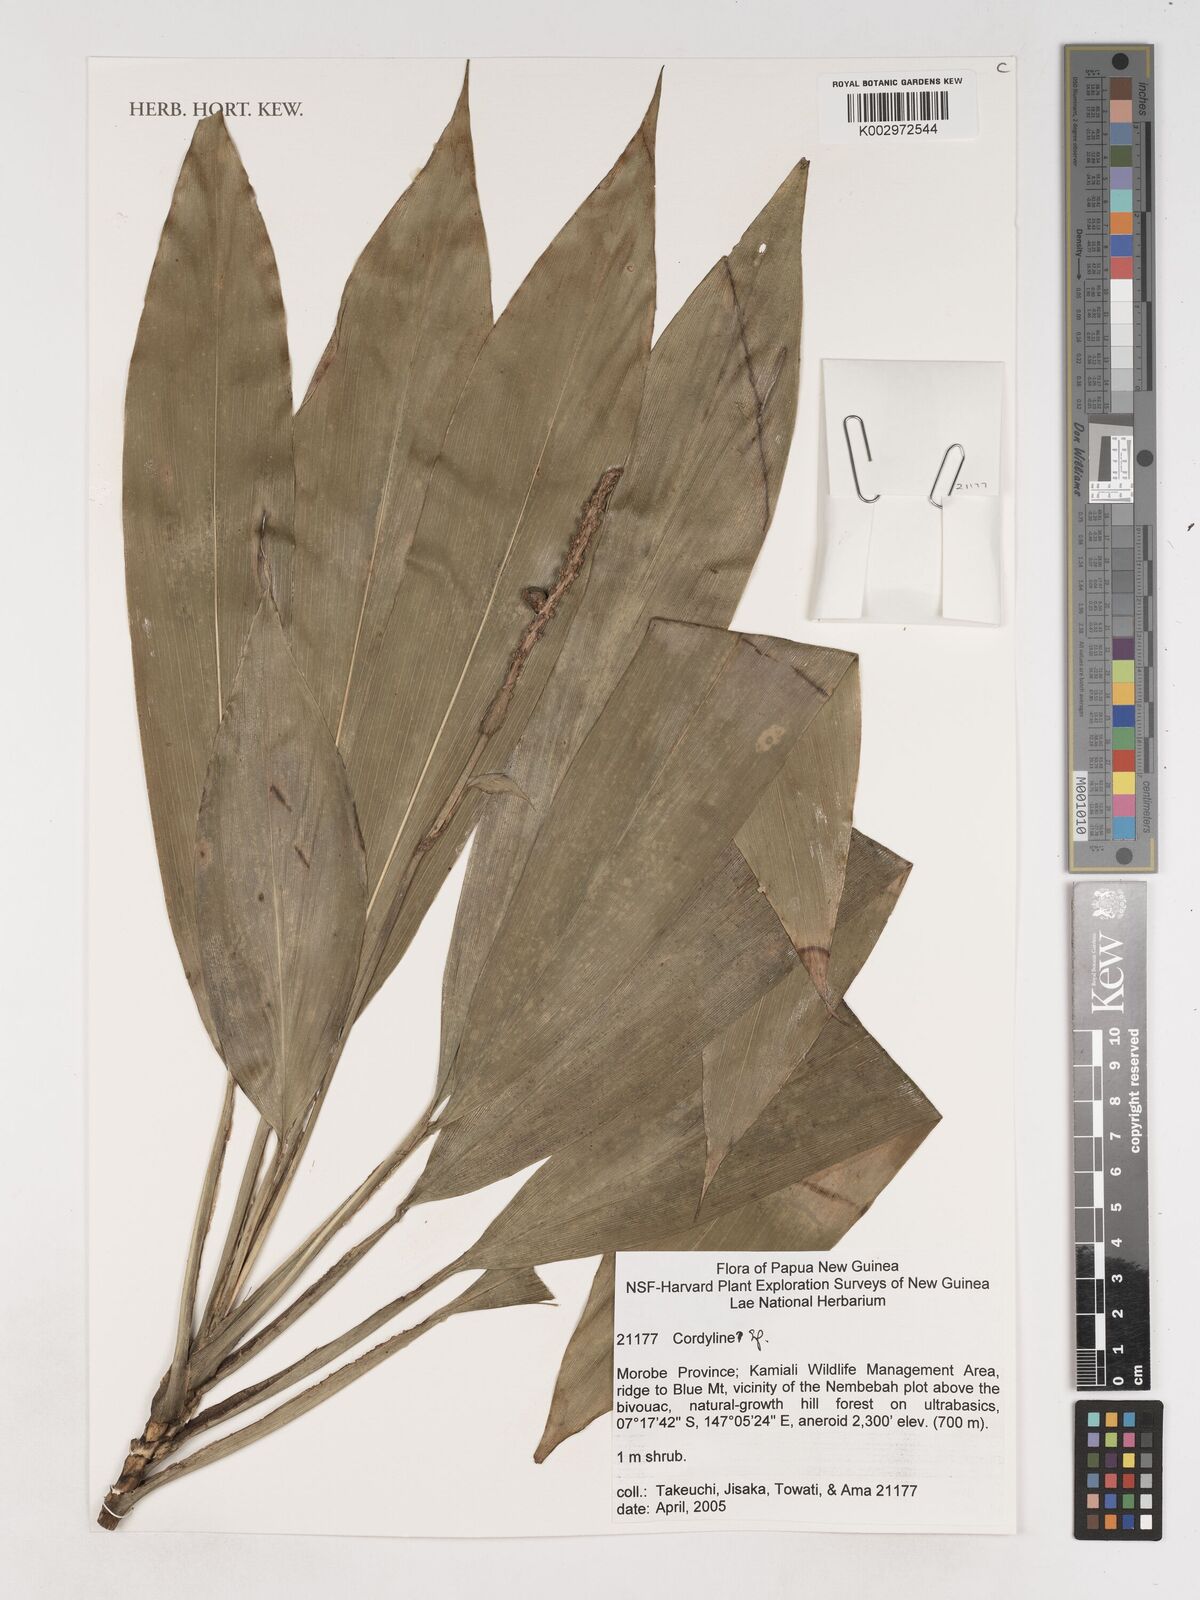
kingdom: Plantae
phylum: Tracheophyta
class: Liliopsida
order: Asparagales
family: Asparagaceae
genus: Cordyline
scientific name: Cordyline
